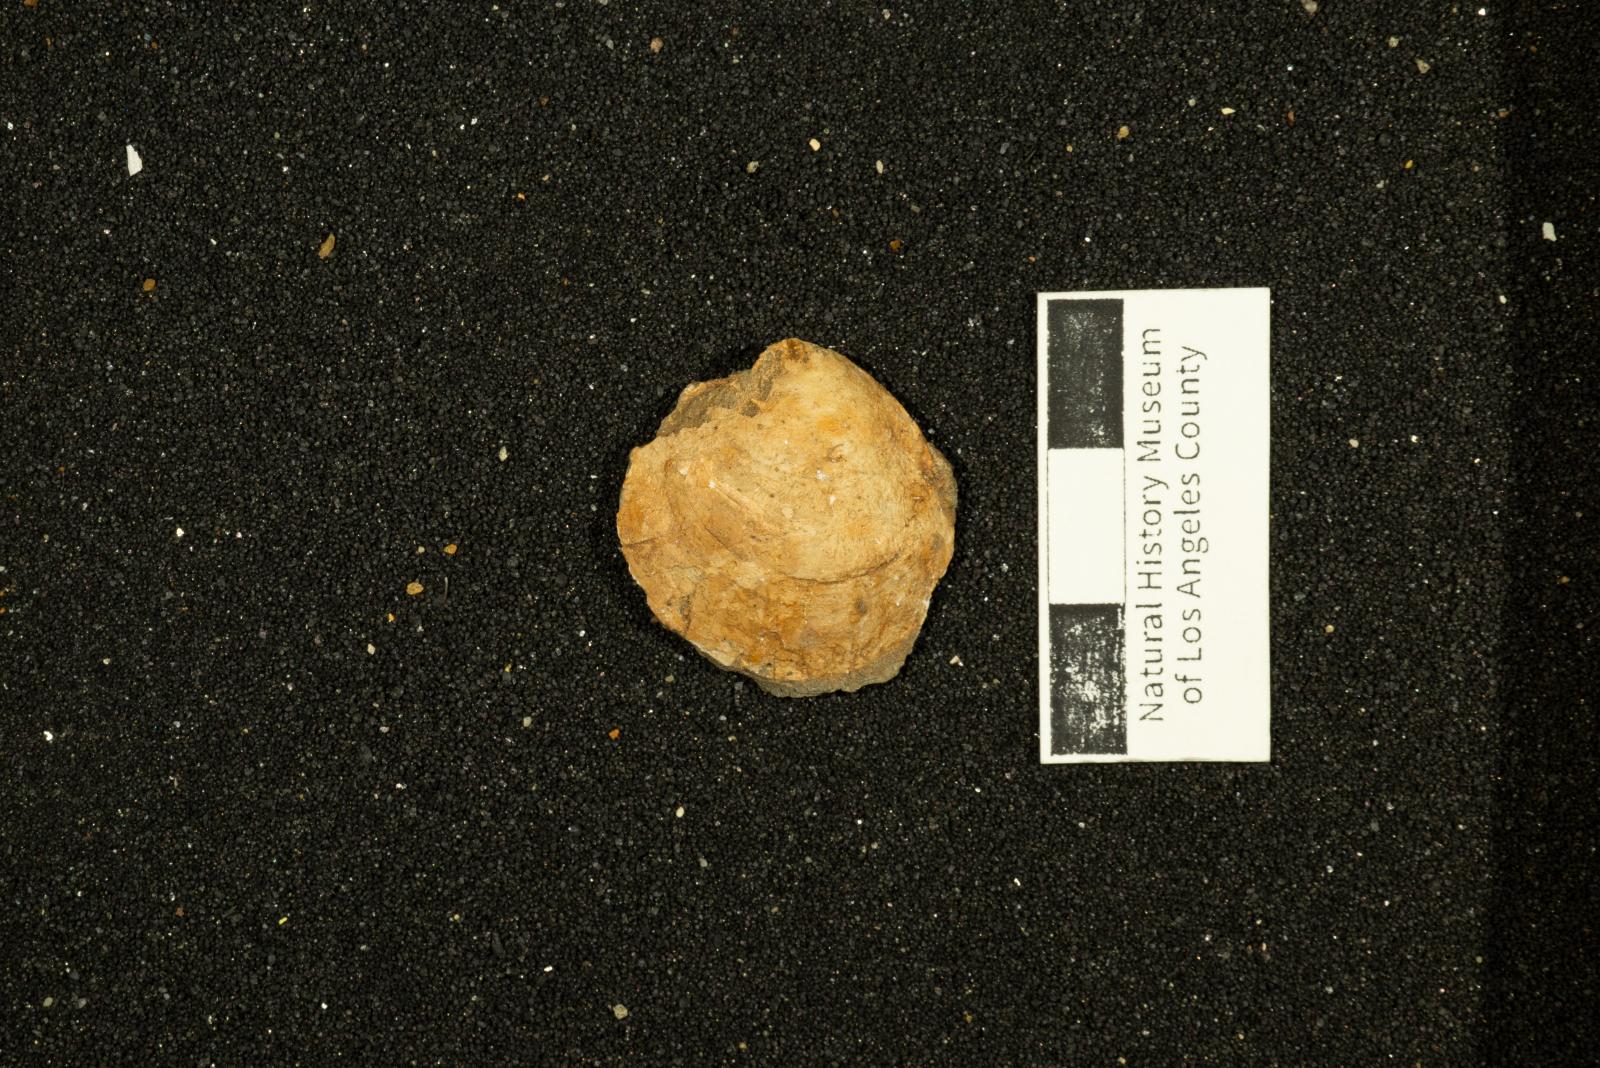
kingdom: Animalia
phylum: Mollusca
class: Bivalvia
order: Venerida
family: Arcticidae
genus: Tenea
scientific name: Tenea
